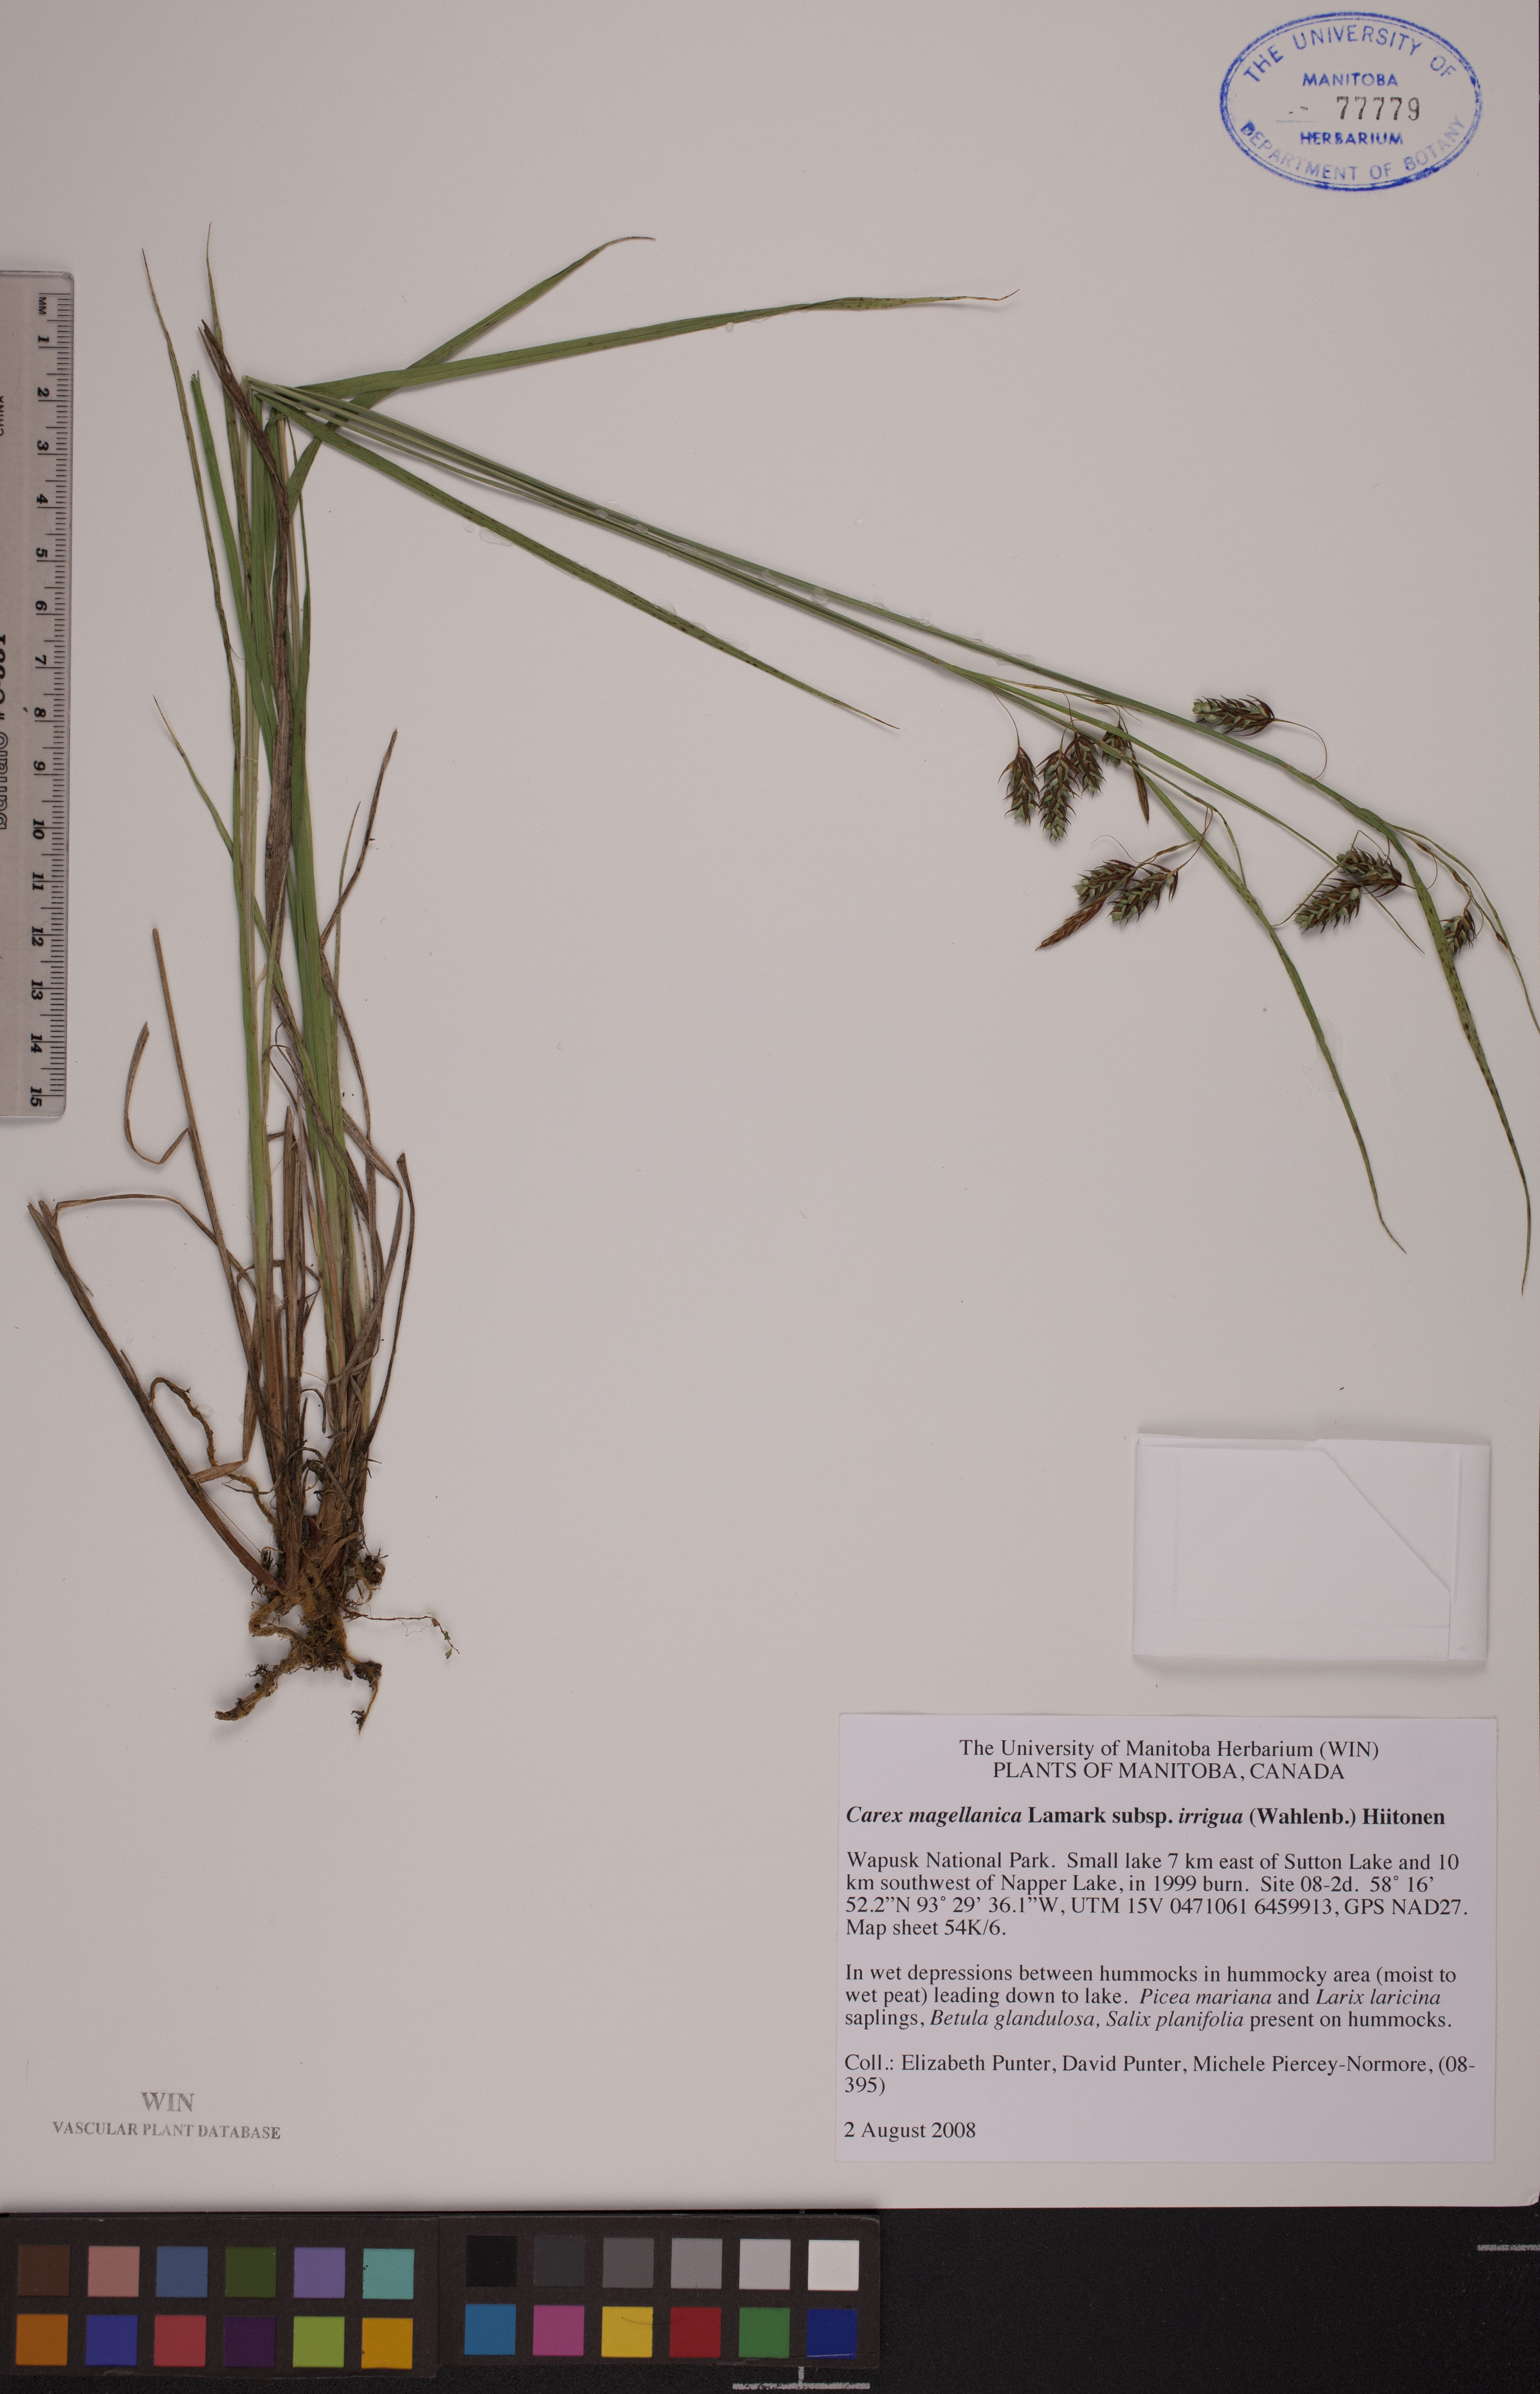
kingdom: Plantae
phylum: Tracheophyta
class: Liliopsida
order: Poales
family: Cyperaceae
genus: Carex
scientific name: Carex magellanica
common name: Bog sedge
